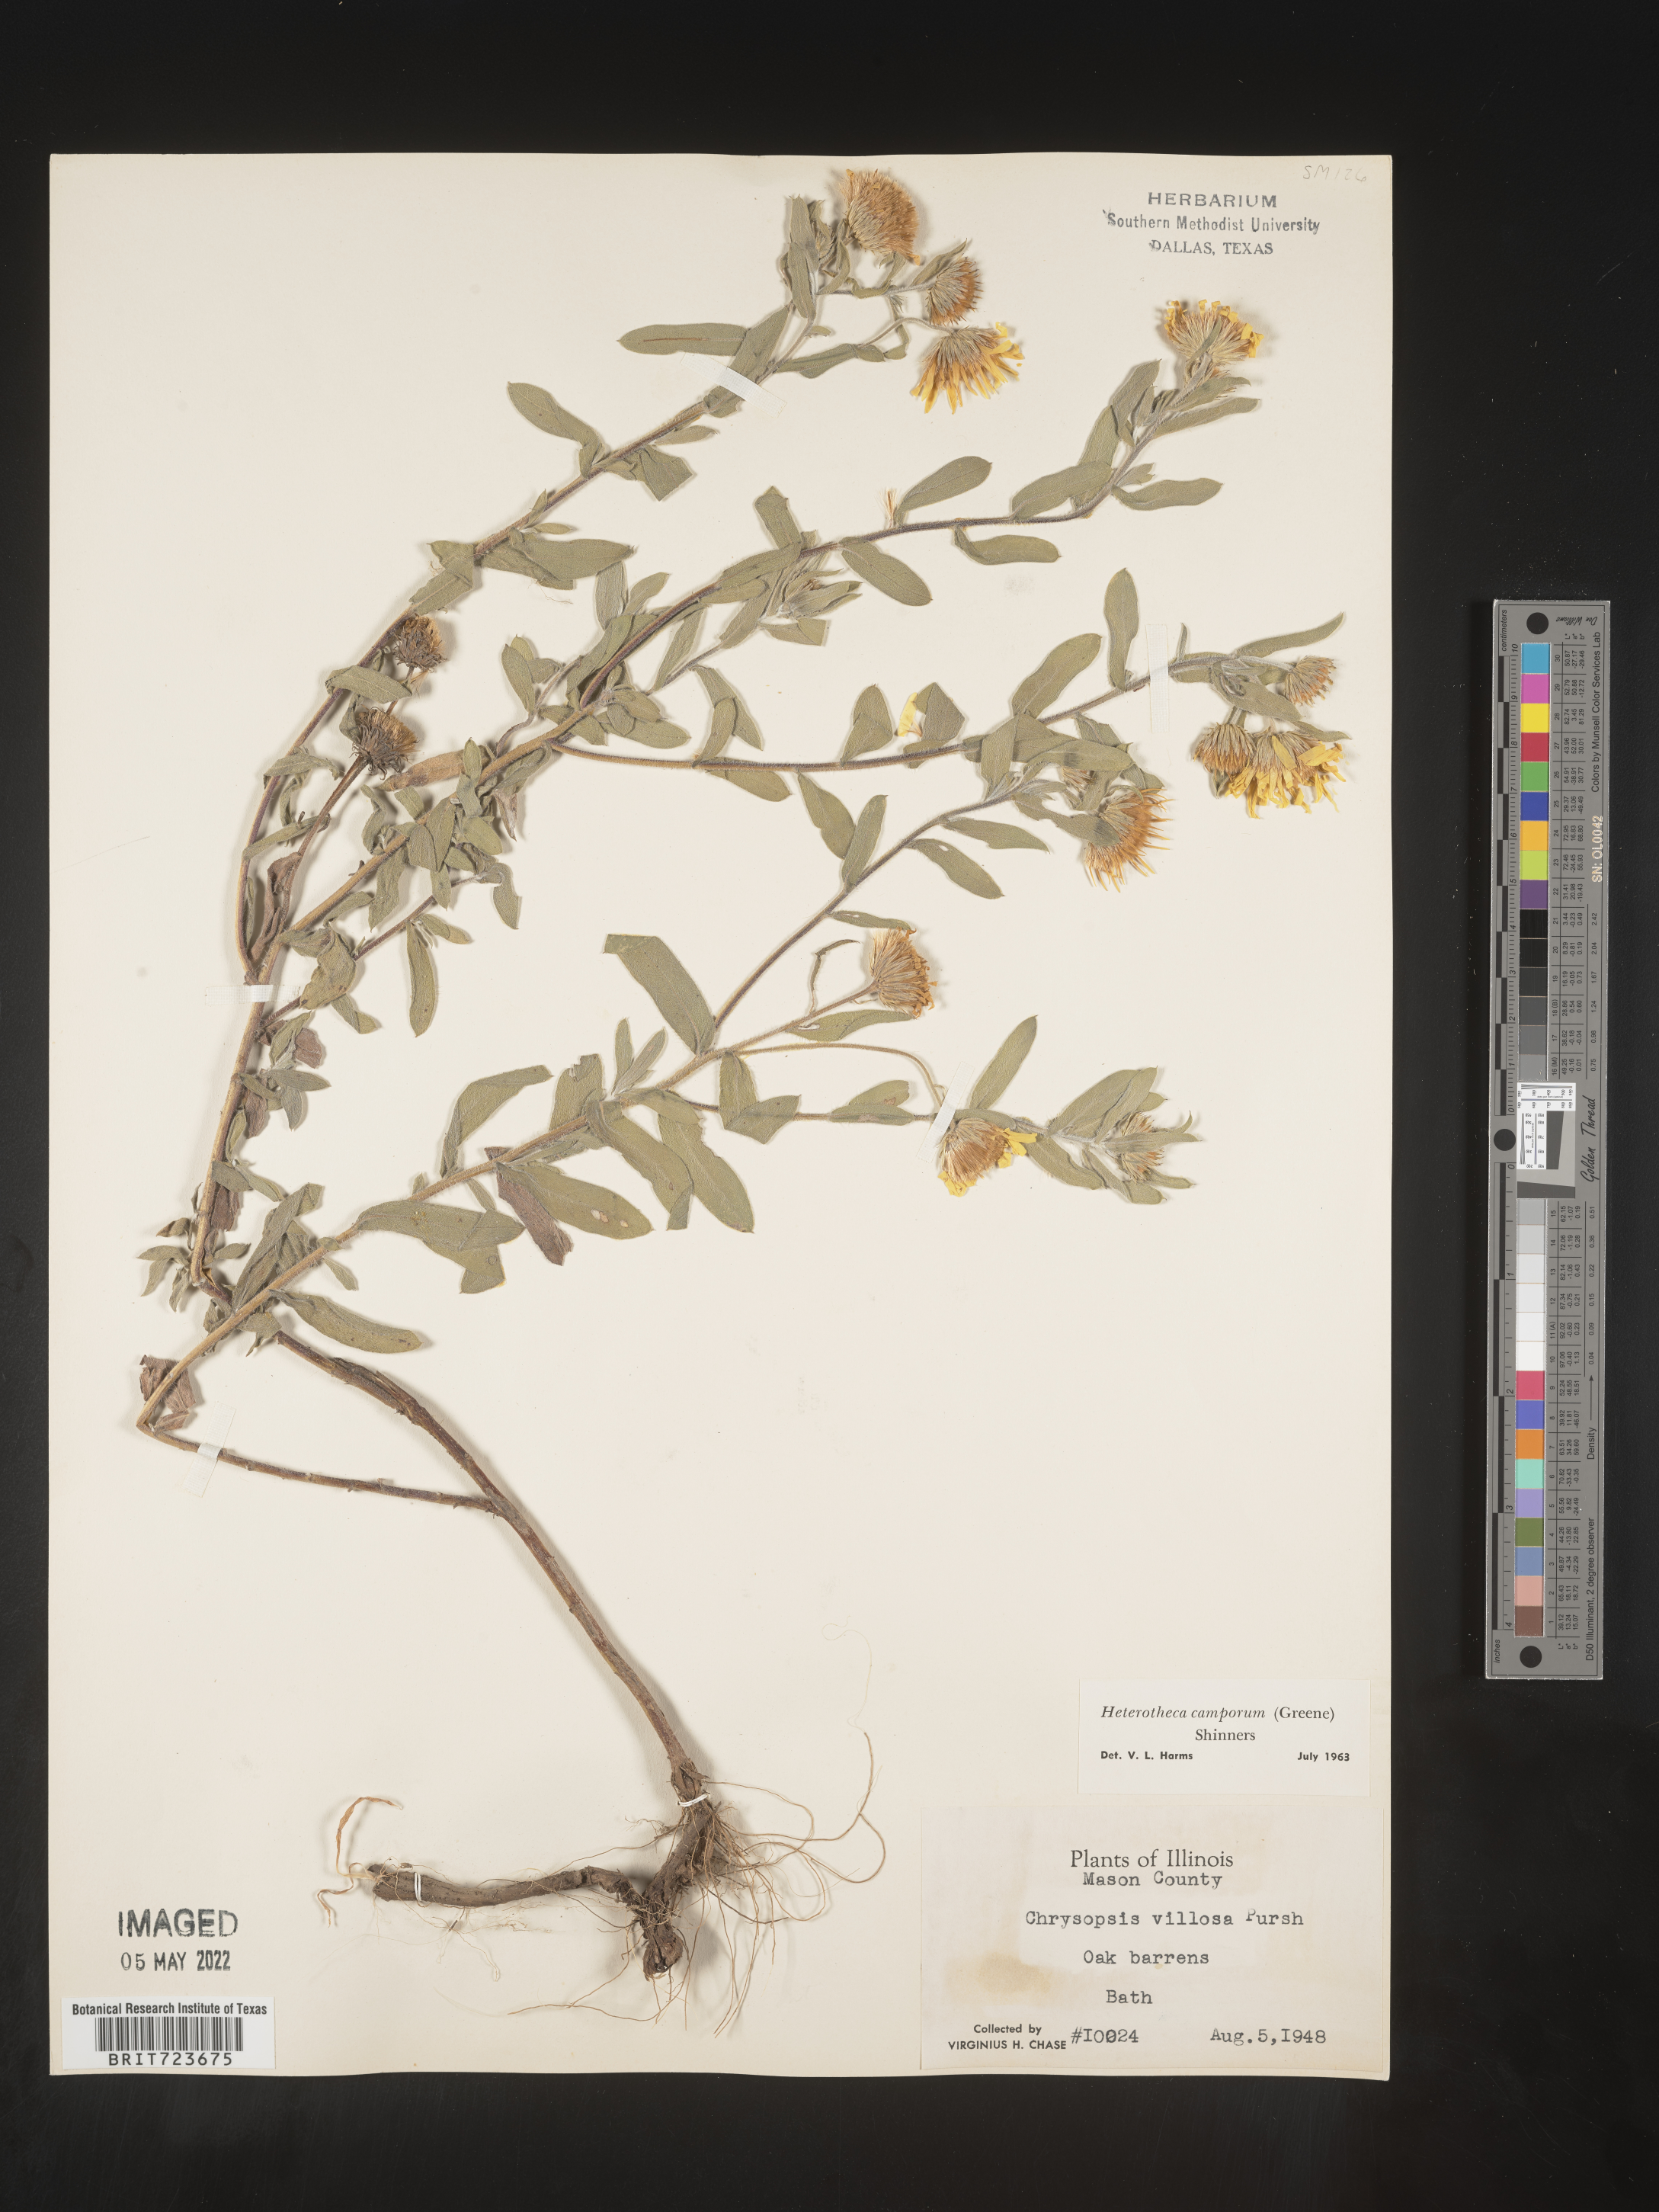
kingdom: Plantae
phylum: Tracheophyta
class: Magnoliopsida
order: Asterales
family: Asteraceae
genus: Heterotheca
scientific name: Heterotheca camporum
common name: Prairie golden-aster
